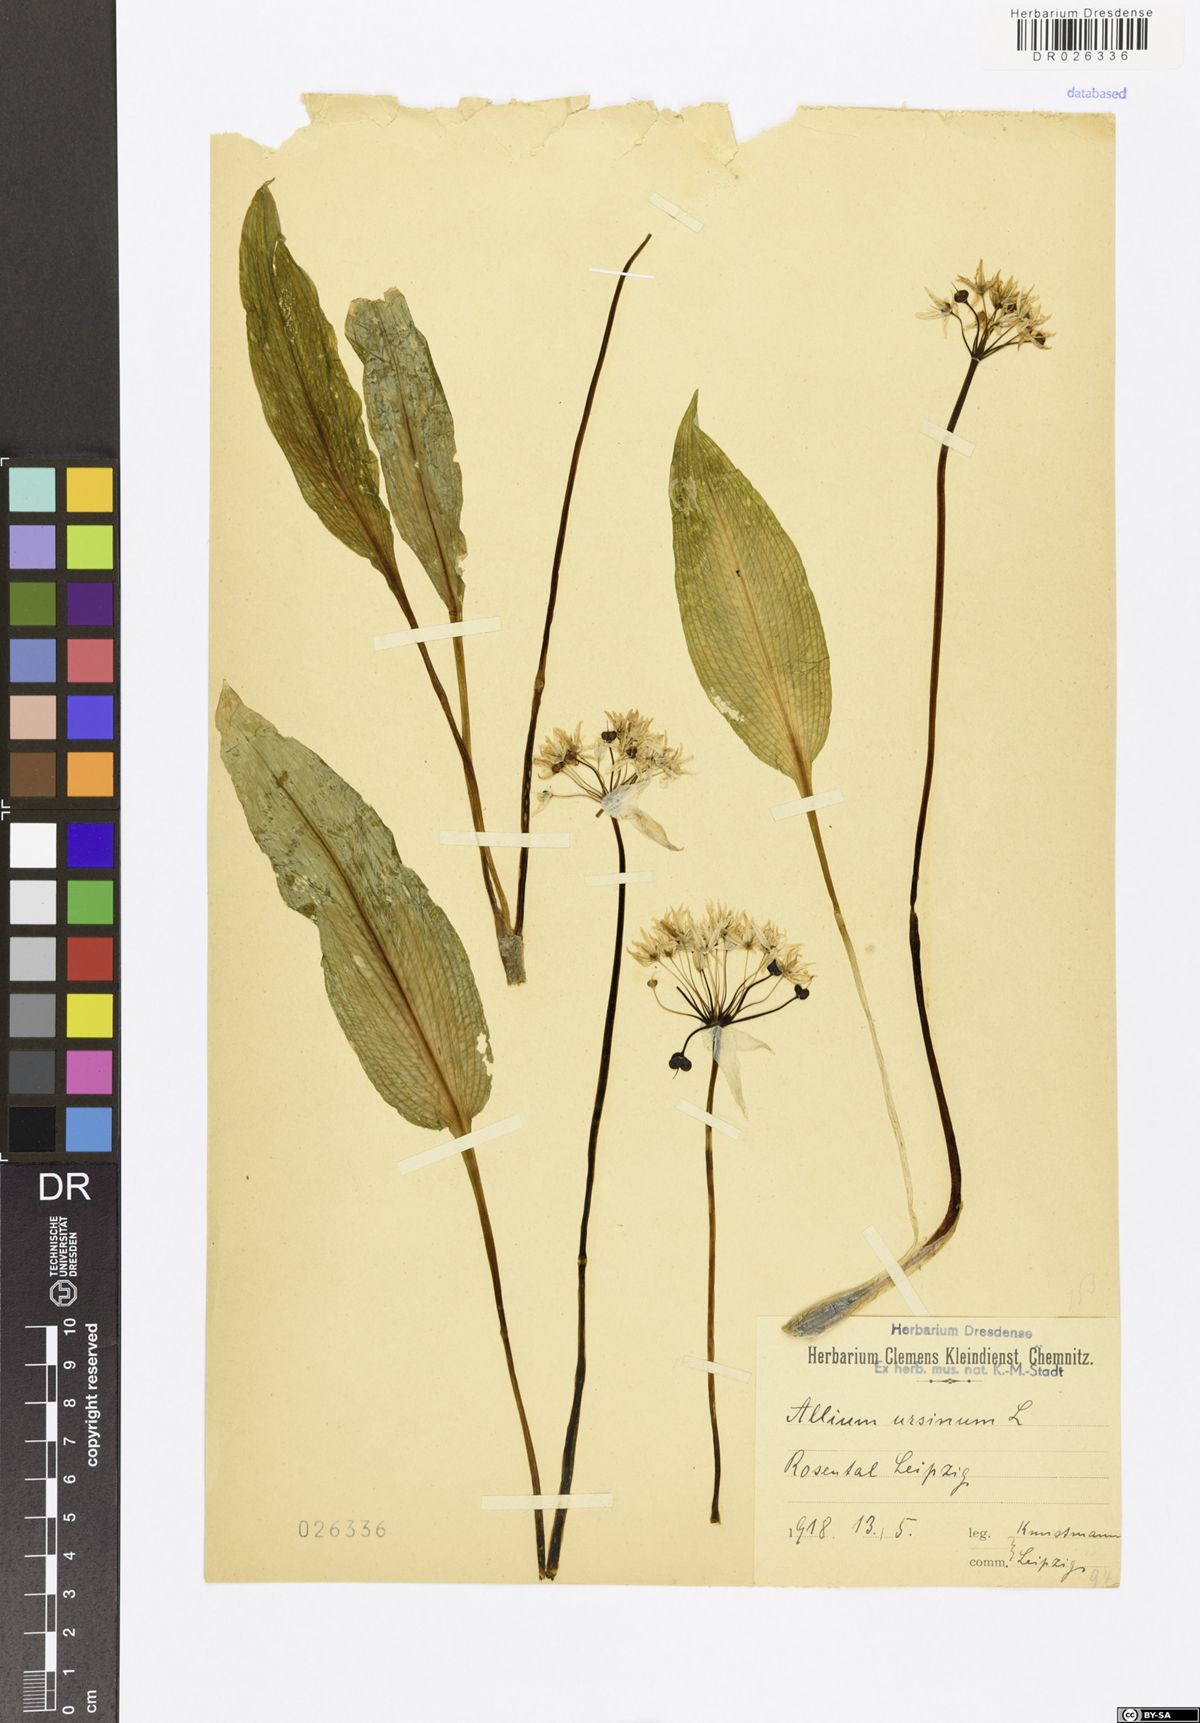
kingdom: Plantae
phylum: Tracheophyta
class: Liliopsida
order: Asparagales
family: Amaryllidaceae
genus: Allium
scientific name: Allium ursinum
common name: Ramsons
